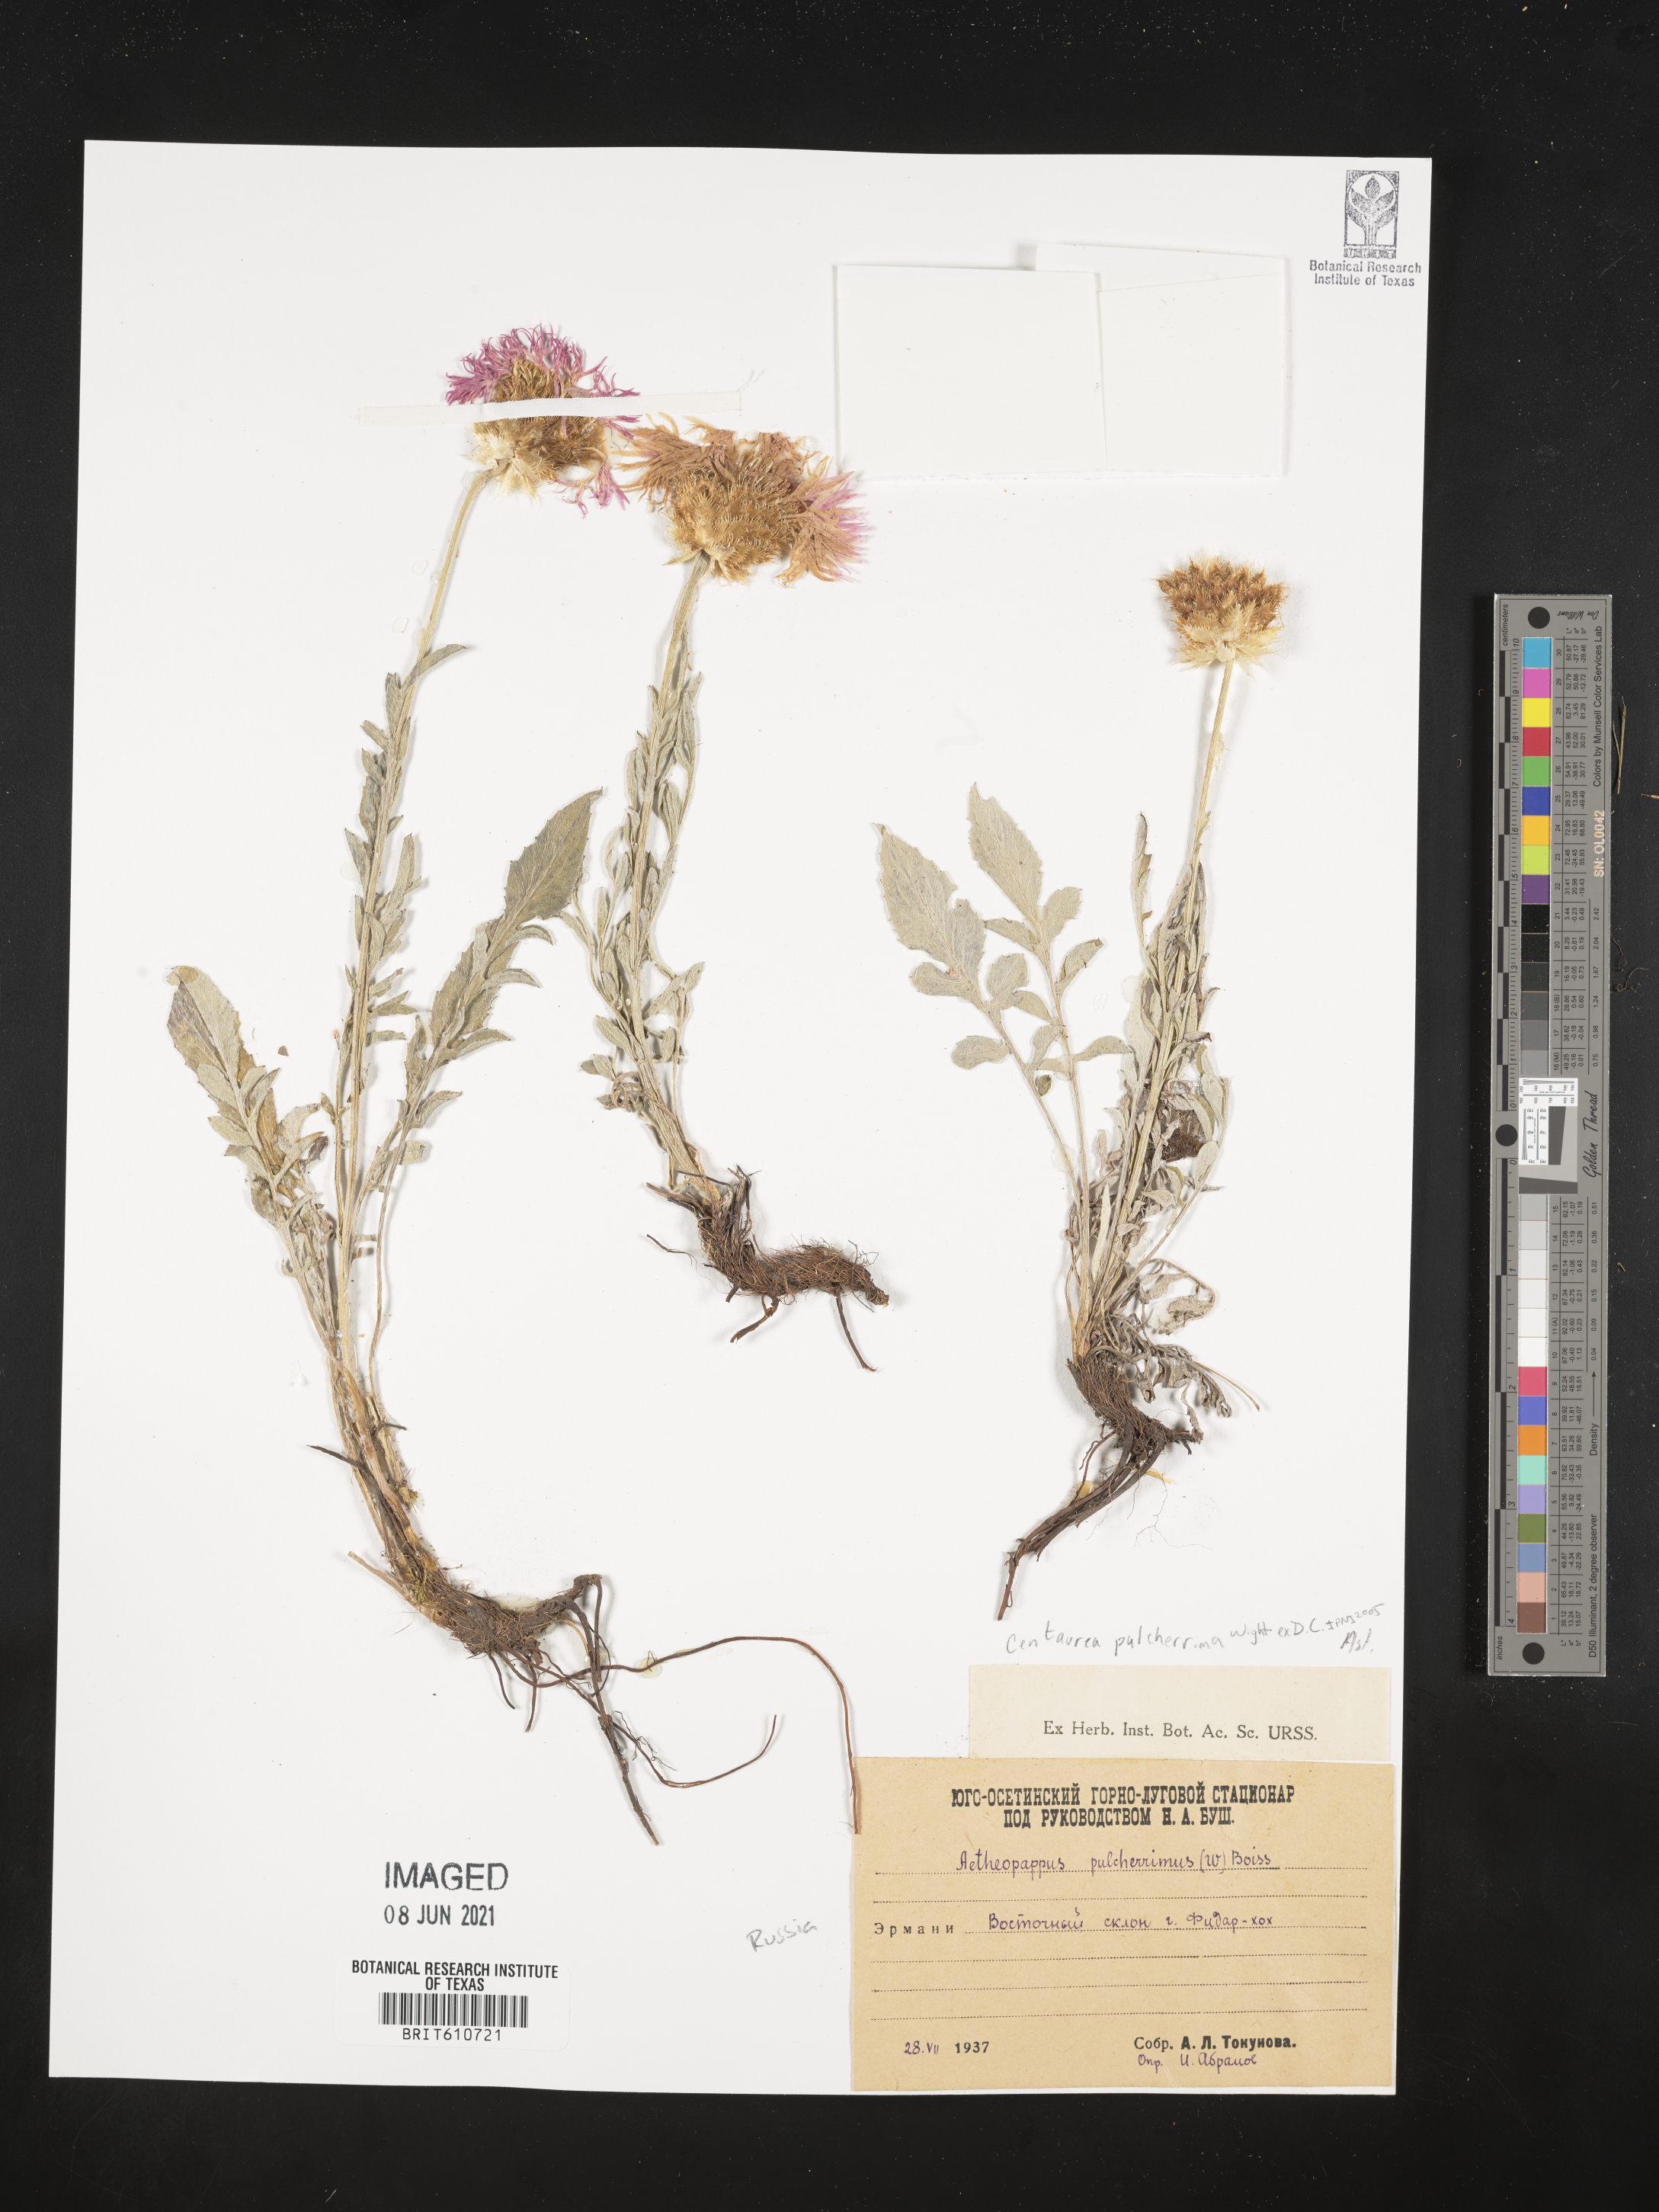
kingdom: Plantae
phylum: Tracheophyta
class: Magnoliopsida
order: Asterales
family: Asteraceae
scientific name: Asteraceae
